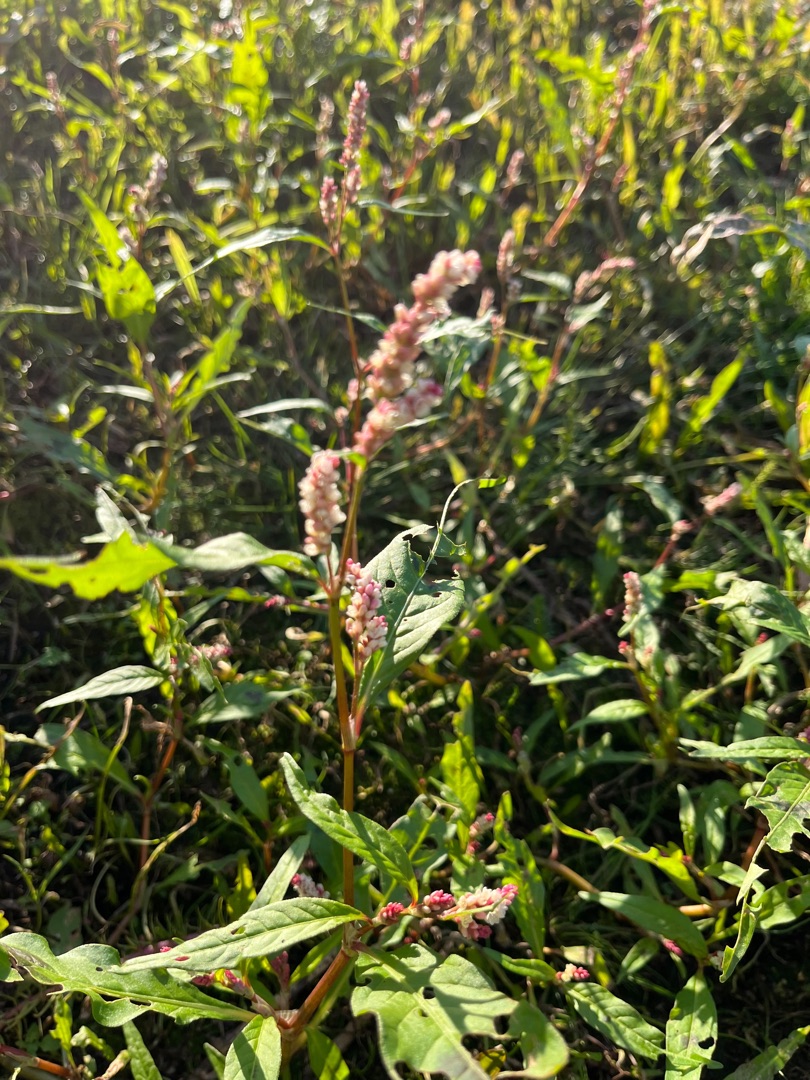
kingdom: Plantae
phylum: Tracheophyta
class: Magnoliopsida
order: Caryophyllales
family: Polygonaceae
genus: Persicaria
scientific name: Persicaria lapathifolia
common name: Knudet pileurt (underart)
